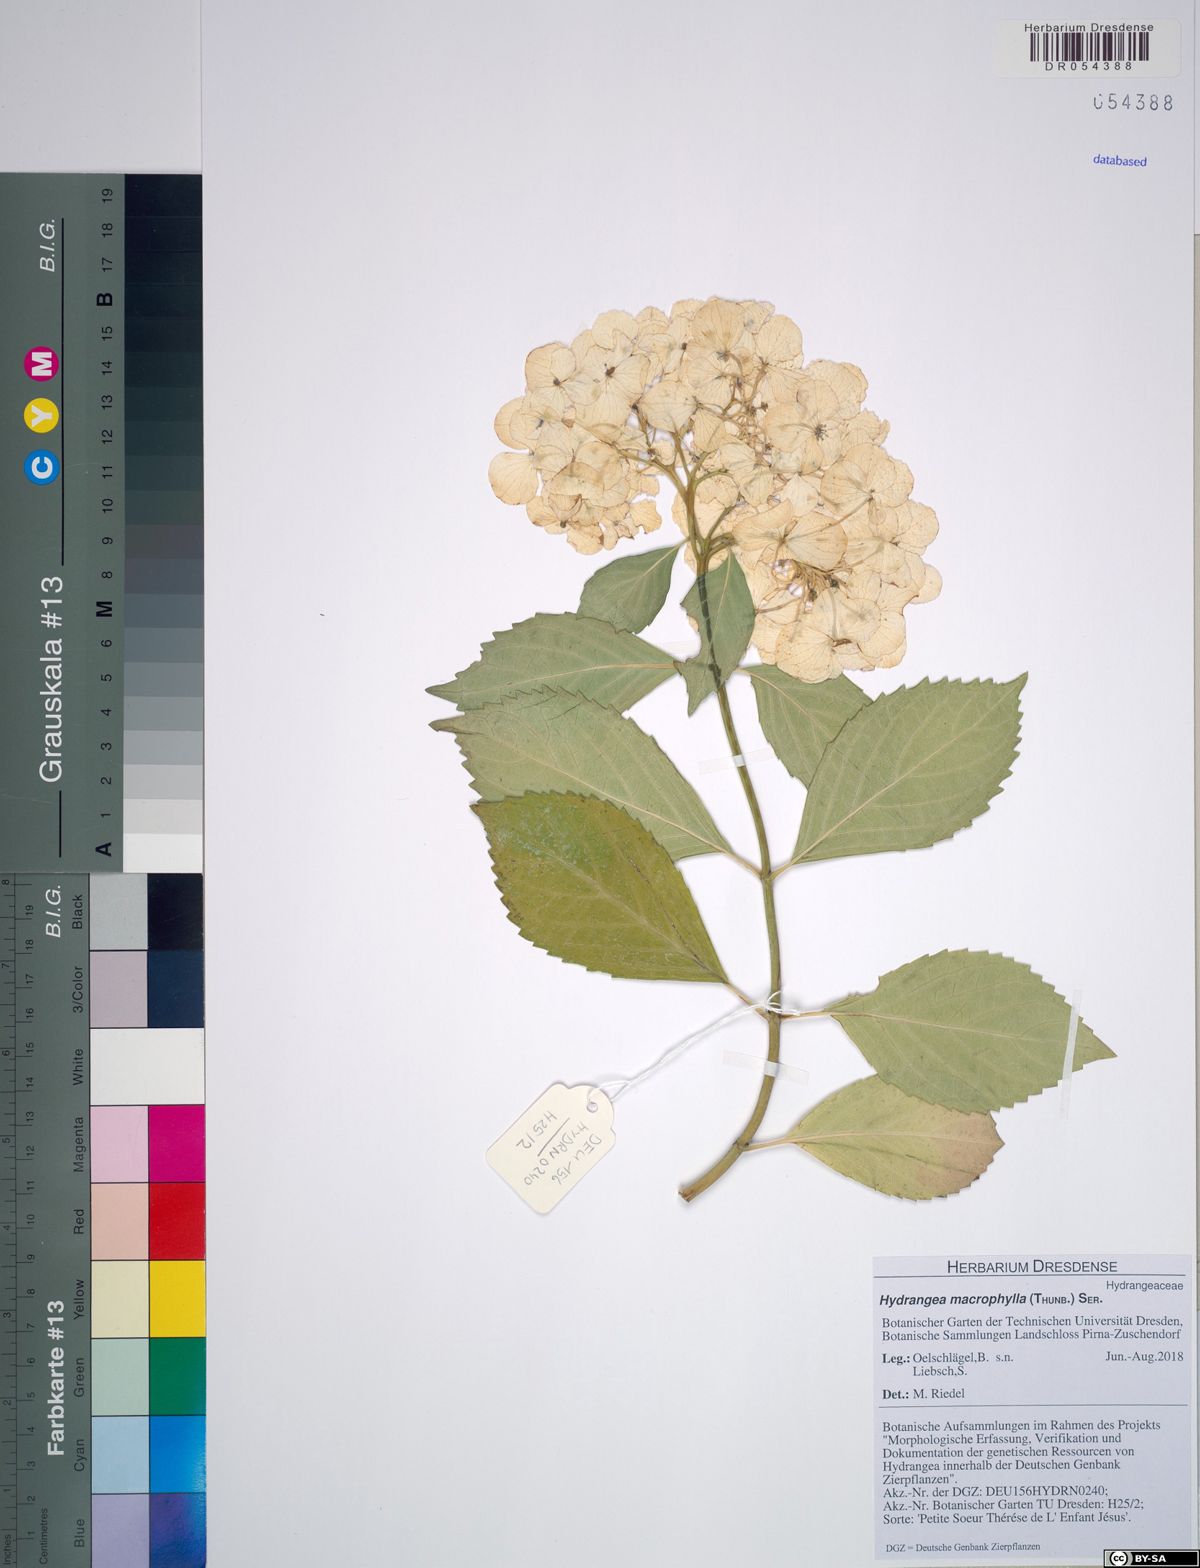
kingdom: Plantae
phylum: Tracheophyta
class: Magnoliopsida
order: Cornales
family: Hydrangeaceae
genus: Hydrangea
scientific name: Hydrangea macrophylla
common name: Hydrangea
